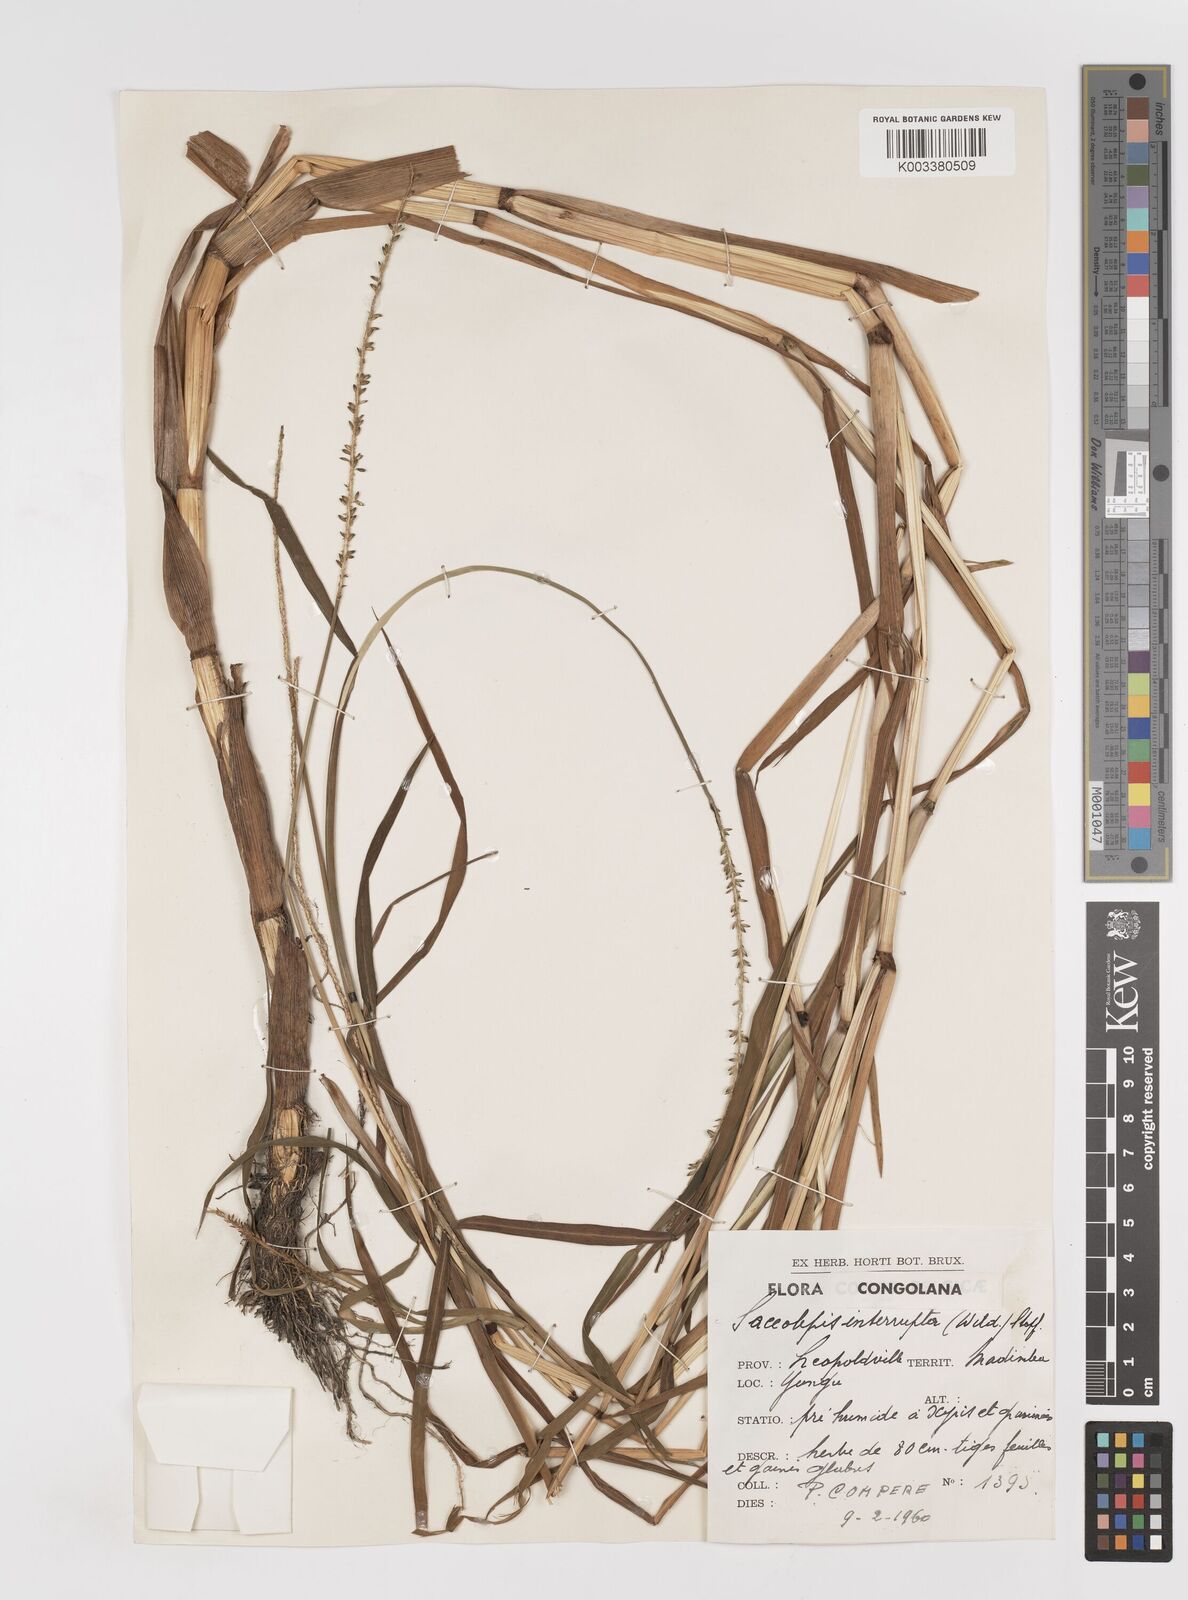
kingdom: Plantae
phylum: Tracheophyta
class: Liliopsida
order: Poales
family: Poaceae
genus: Sacciolepis
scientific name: Sacciolepis africana
